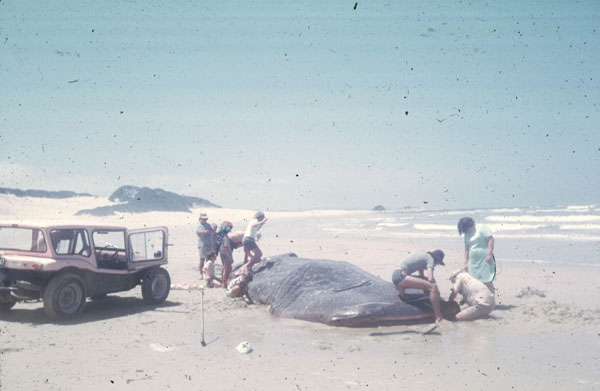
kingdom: Animalia
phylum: Chordata
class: Elasmobranchii
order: Orectolobiformes
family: Rhincodontidae
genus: Rhincodon
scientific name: Rhincodon typus
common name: Whale shark
